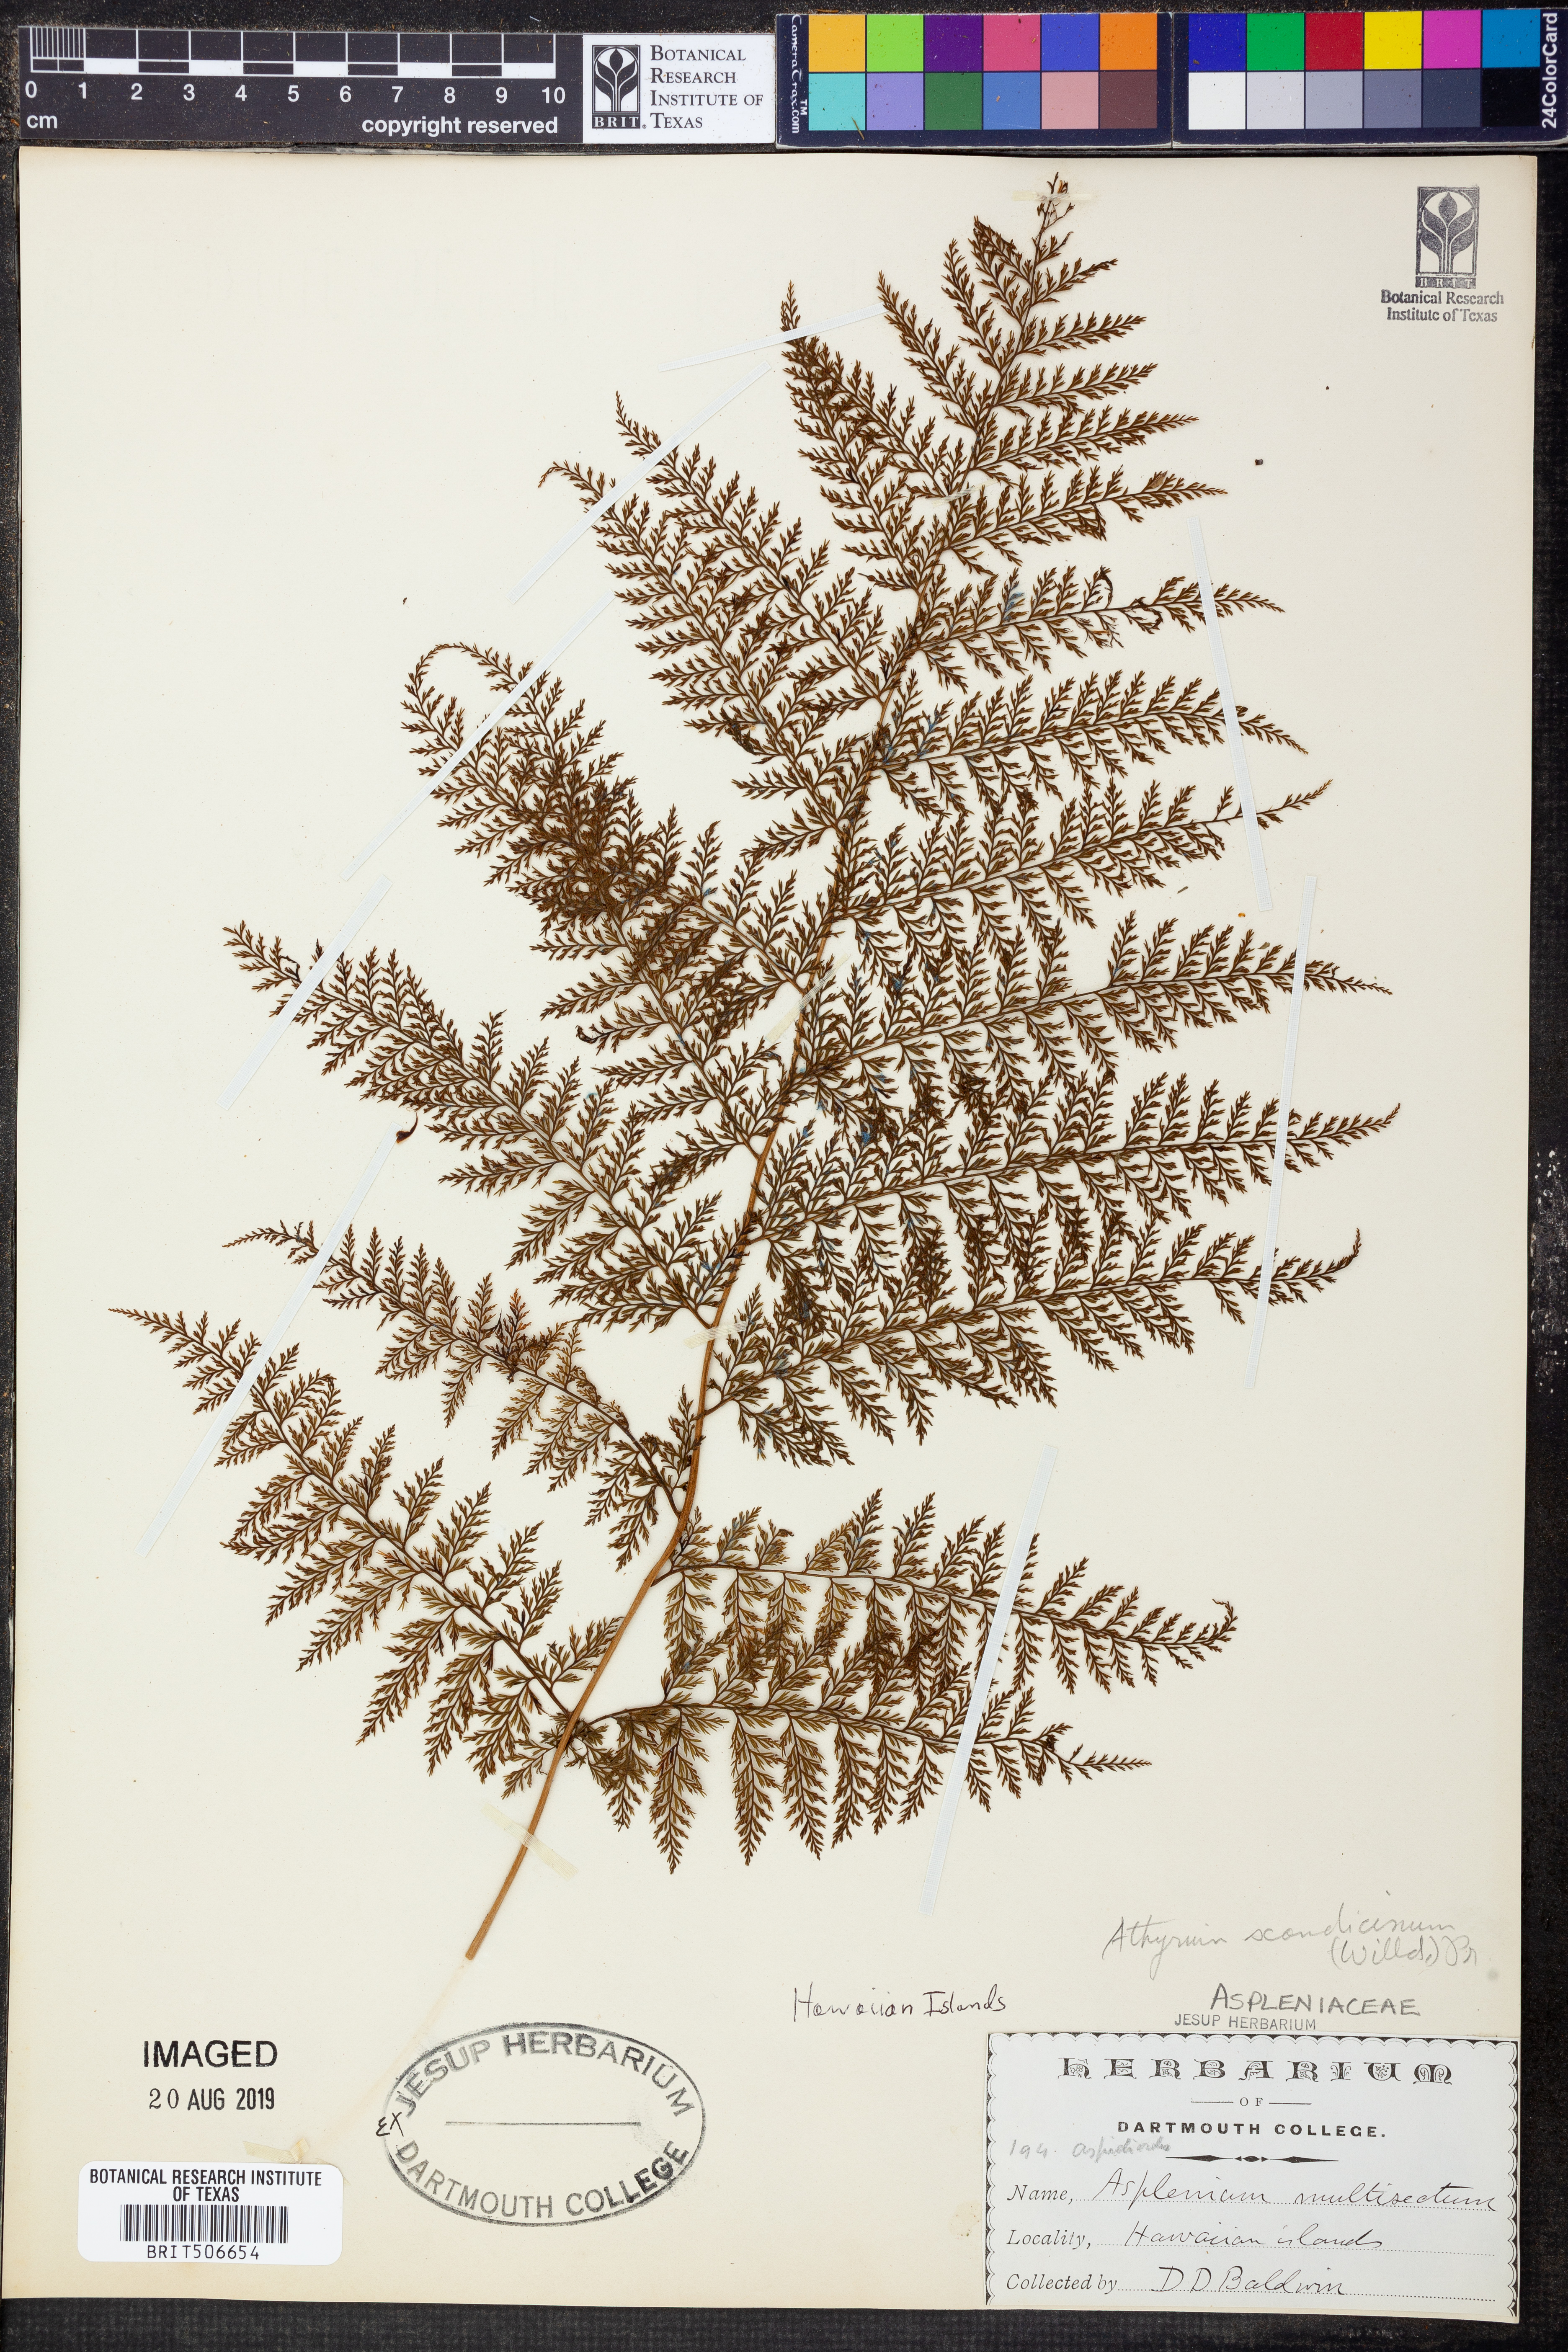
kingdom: Plantae
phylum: Tracheophyta
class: Polypodiopsida
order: Polypodiales
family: Athyriaceae
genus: Athyrium
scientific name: Athyrium scandicinum
